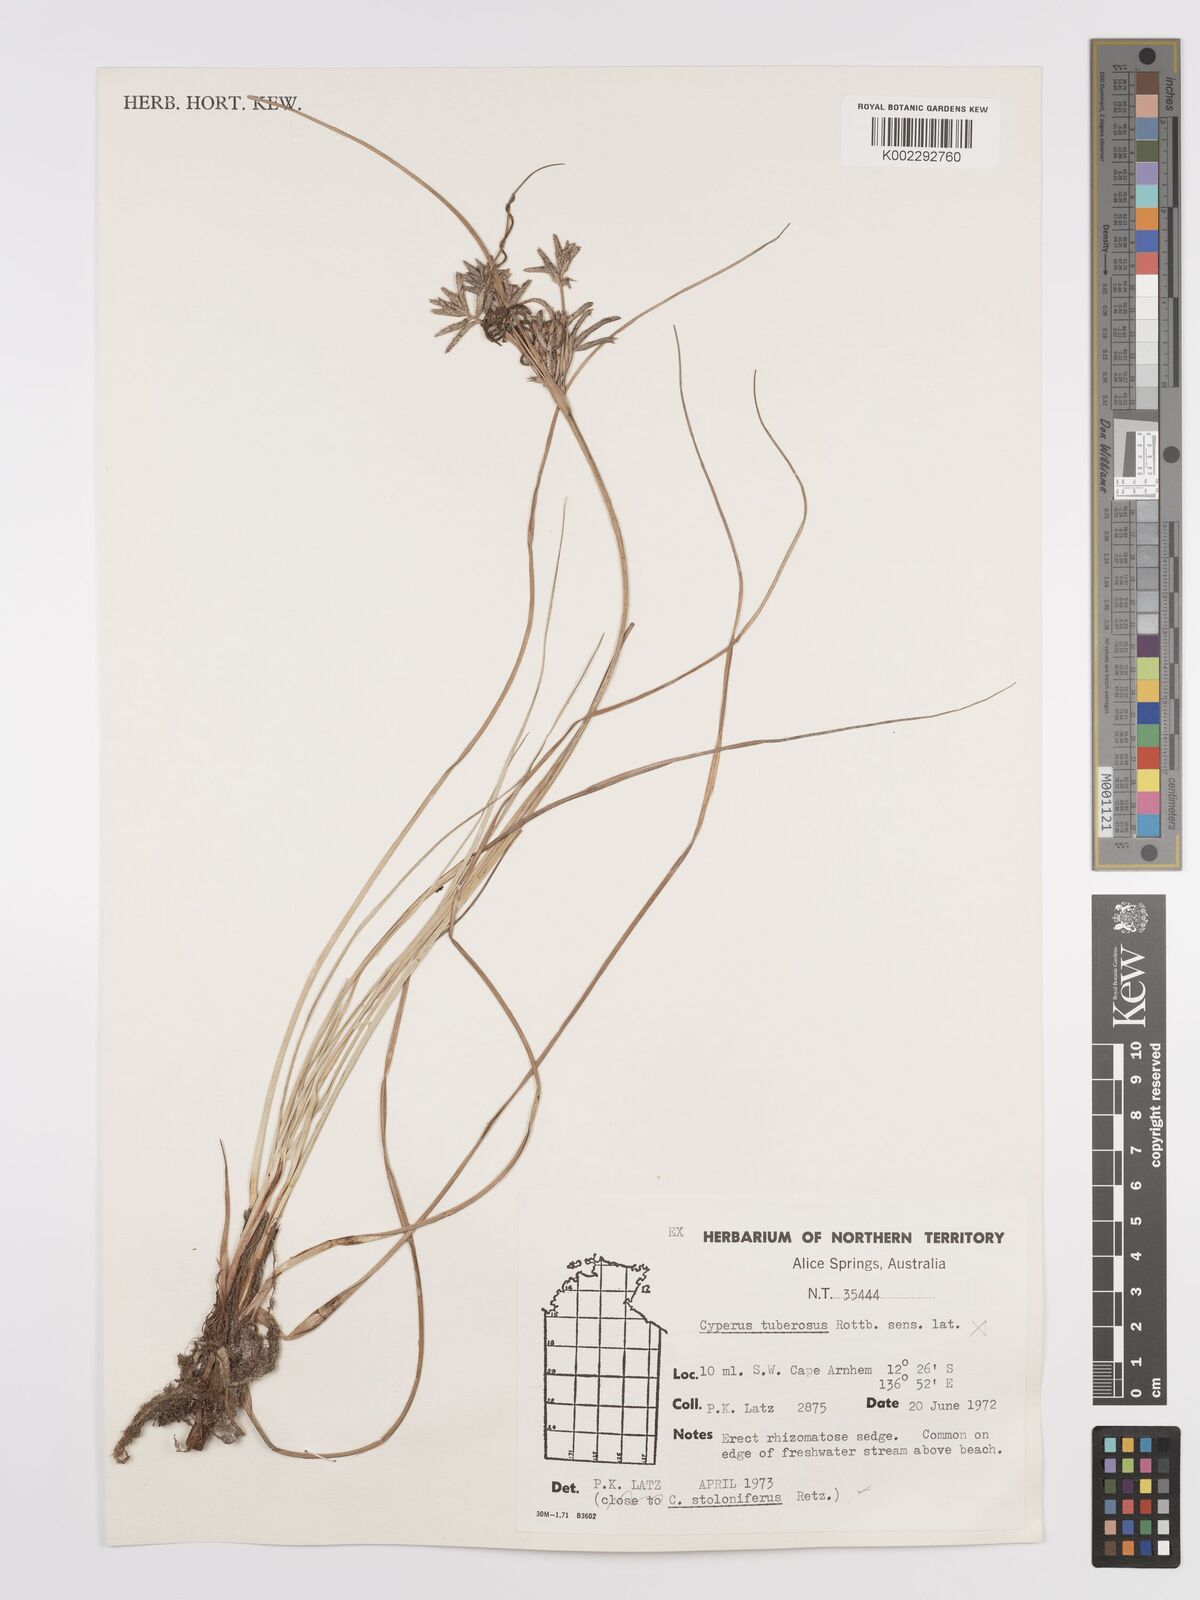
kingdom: Plantae
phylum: Tracheophyta
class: Liliopsida
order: Poales
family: Cyperaceae
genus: Cyperus
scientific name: Cyperus bulbosus
